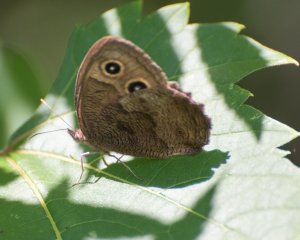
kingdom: Animalia
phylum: Arthropoda
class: Insecta
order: Lepidoptera
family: Nymphalidae
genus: Cercyonis
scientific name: Cercyonis pegala
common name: Common Wood-Nymph
